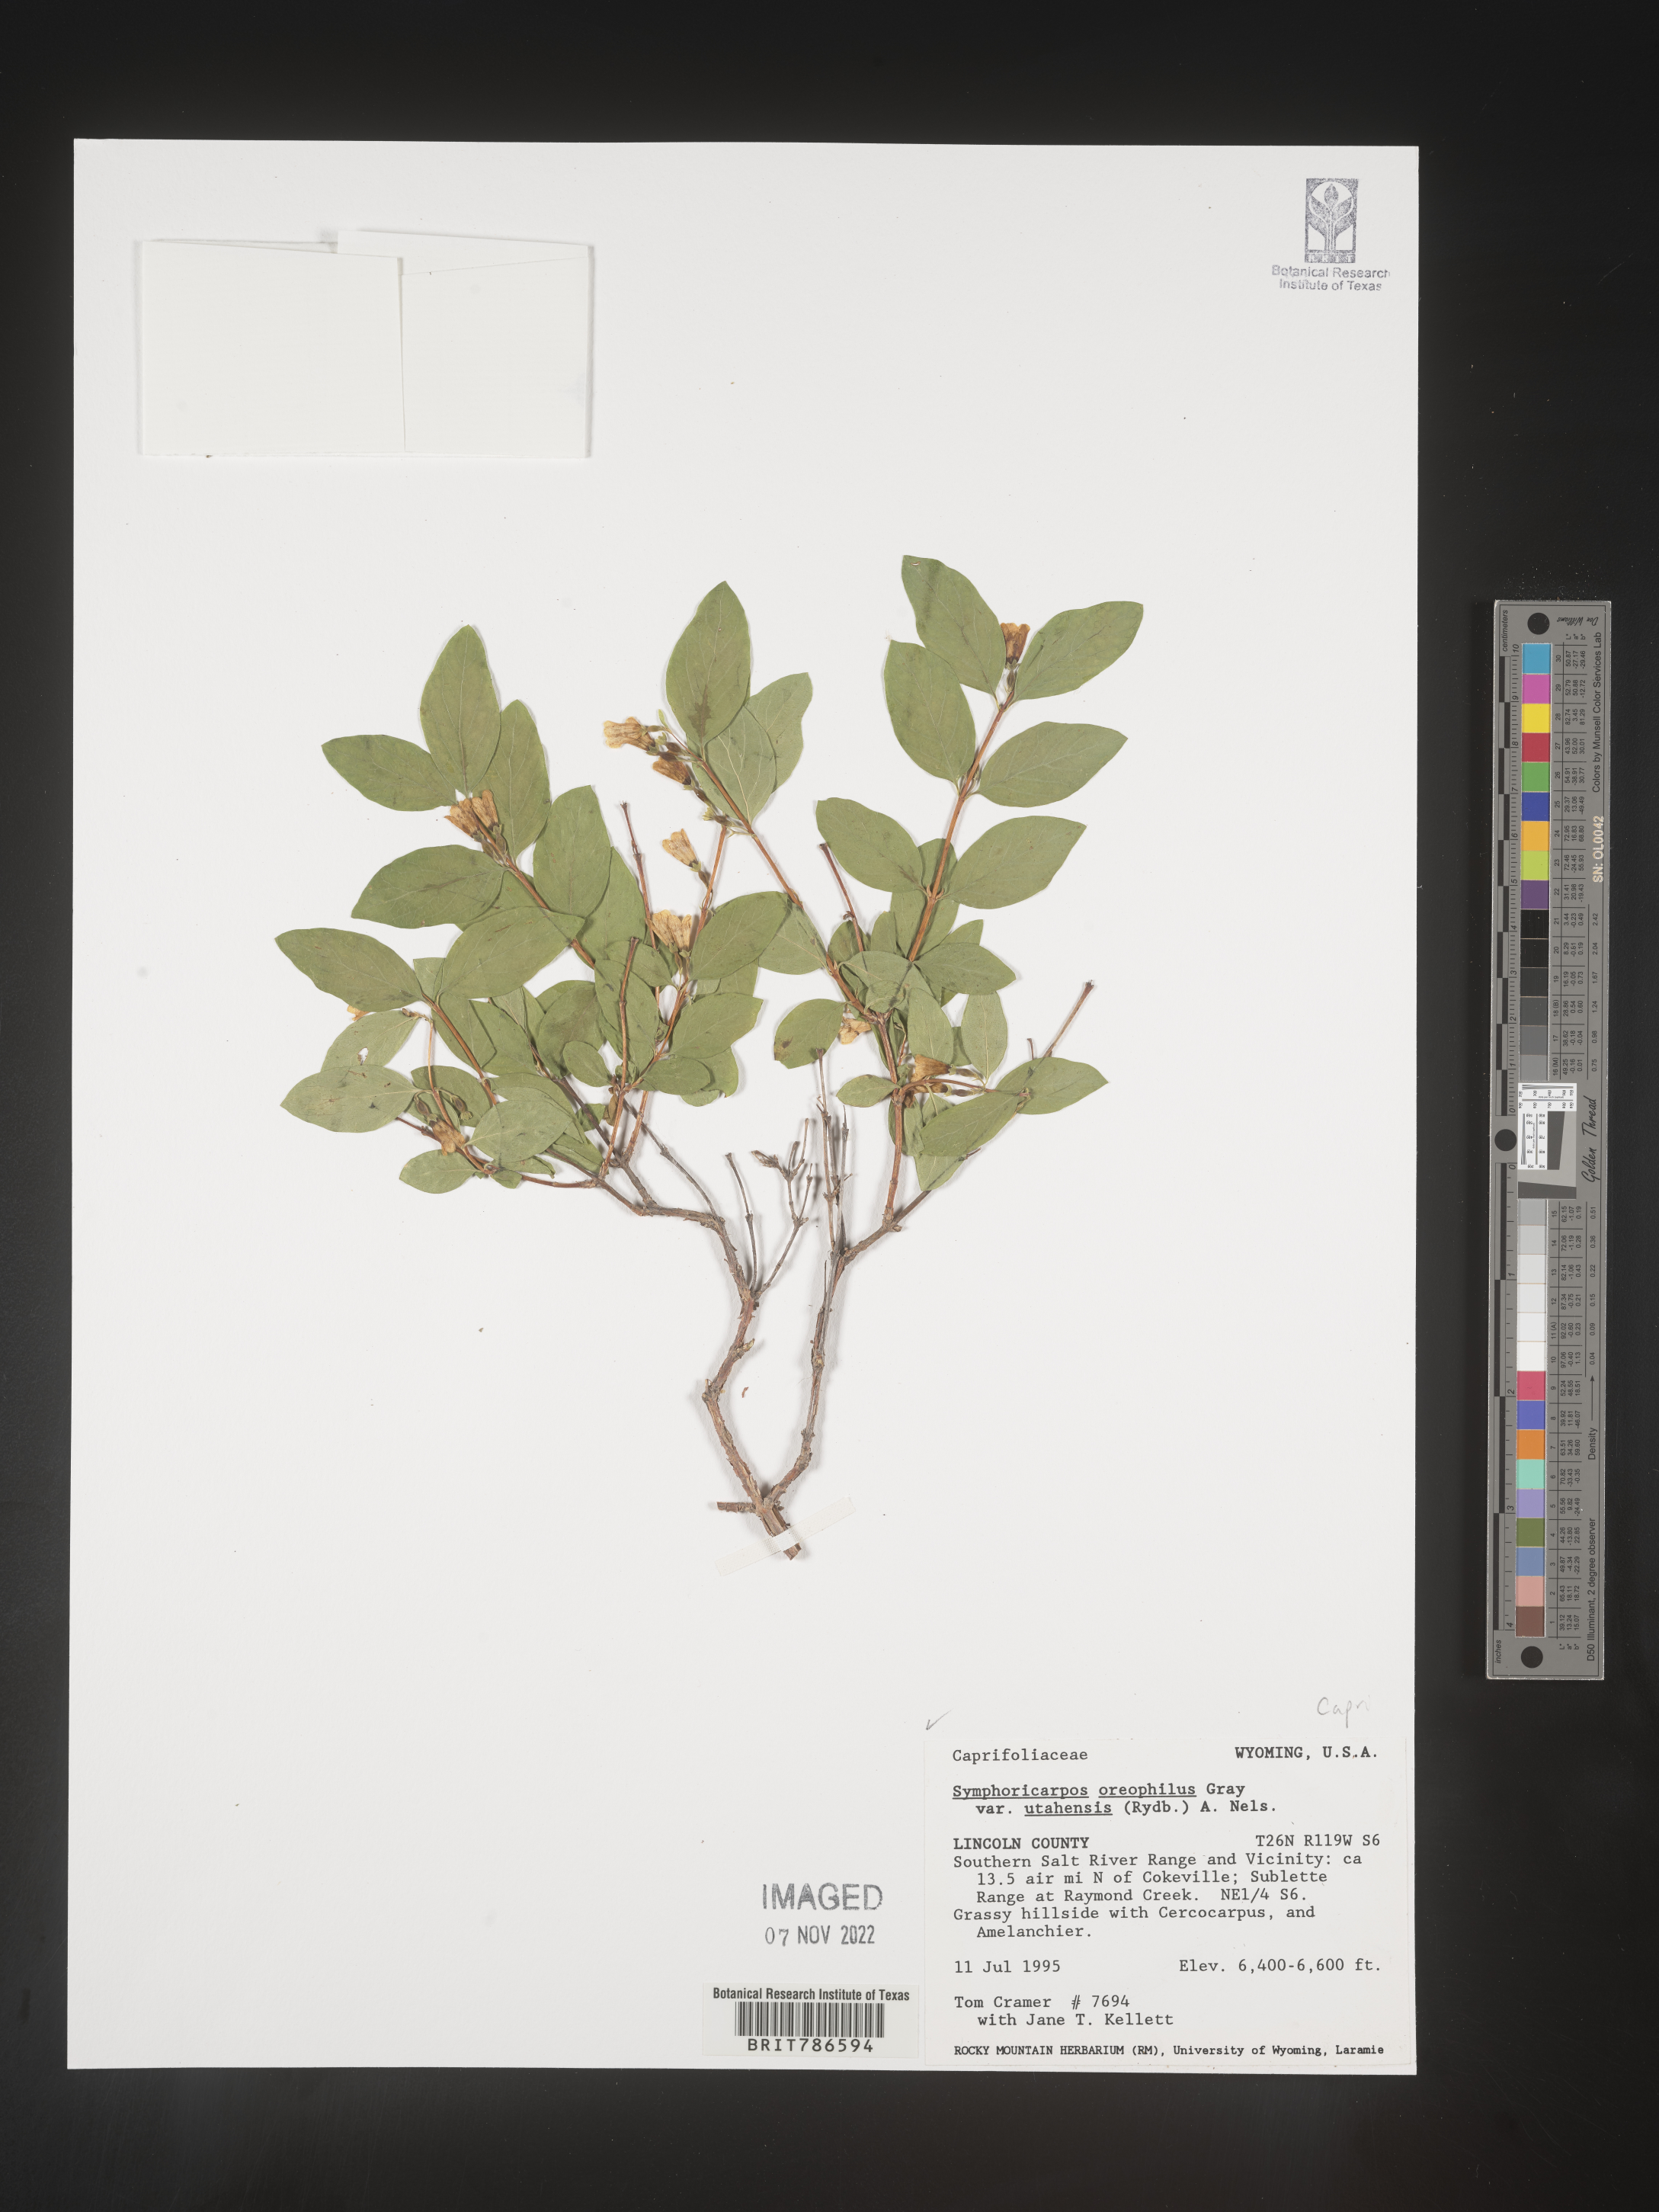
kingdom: Plantae
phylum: Tracheophyta
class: Magnoliopsida
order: Dipsacales
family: Caprifoliaceae
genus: Symphoricarpos
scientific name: Symphoricarpos oreophilus
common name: Mountain snowberry
